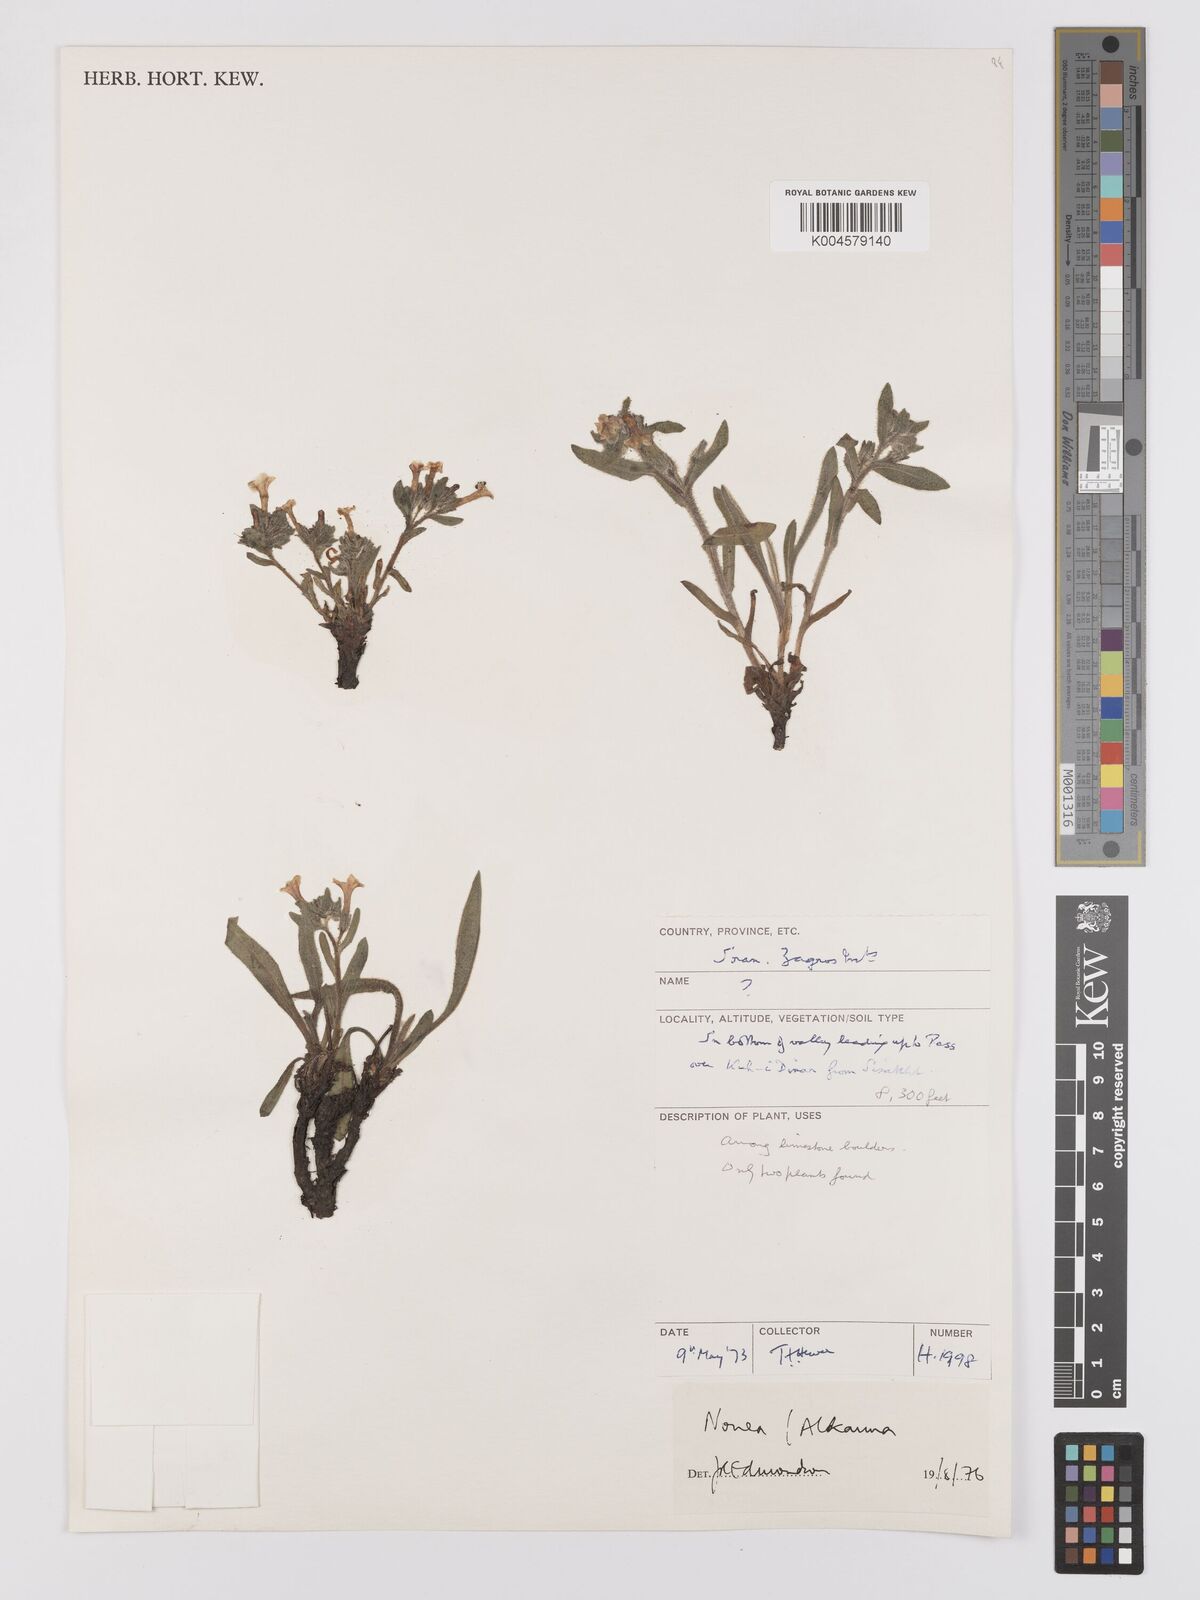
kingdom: Plantae
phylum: Tracheophyta
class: Magnoliopsida
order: Boraginales
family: Boraginaceae
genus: Nonea
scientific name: Nonea
